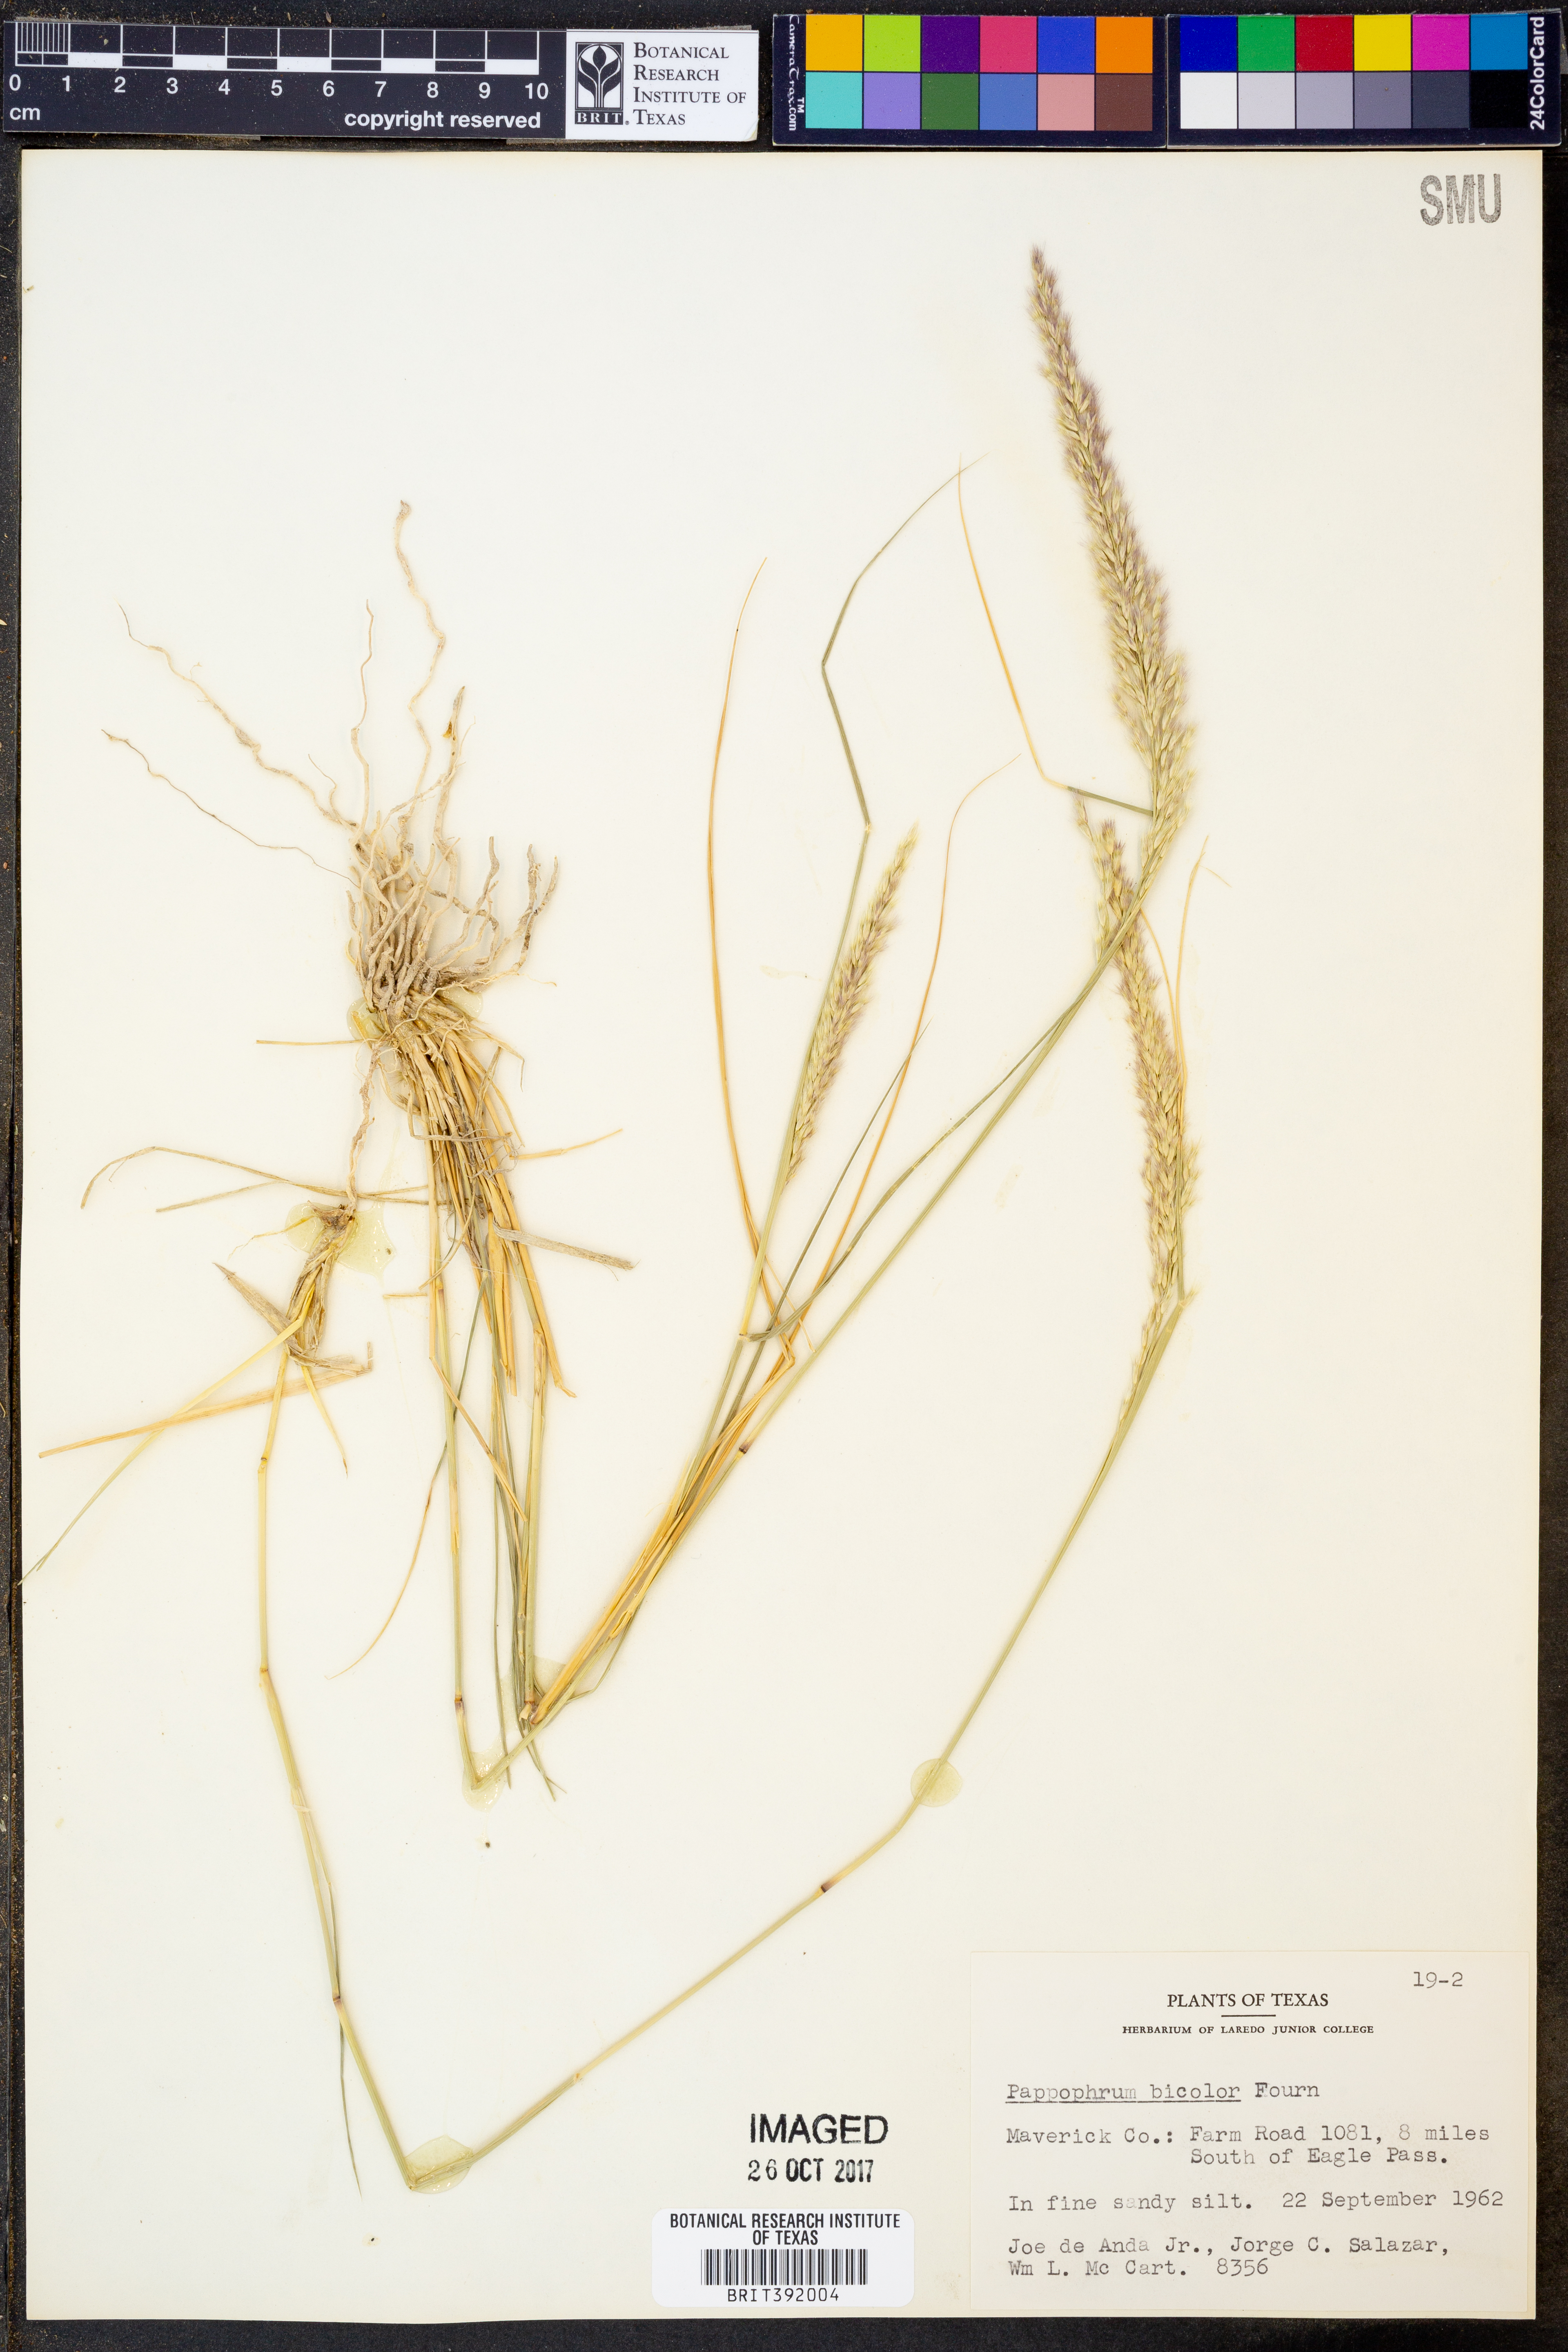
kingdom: Plantae
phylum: Tracheophyta
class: Liliopsida
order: Poales
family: Poaceae
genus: Pappophorum
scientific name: Pappophorum bicolor
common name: Pink pappus grass
